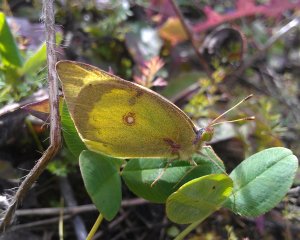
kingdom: Animalia
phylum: Arthropoda
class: Insecta
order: Lepidoptera
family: Pieridae
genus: Colias
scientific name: Colias philodice
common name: Clouded Sulphur
